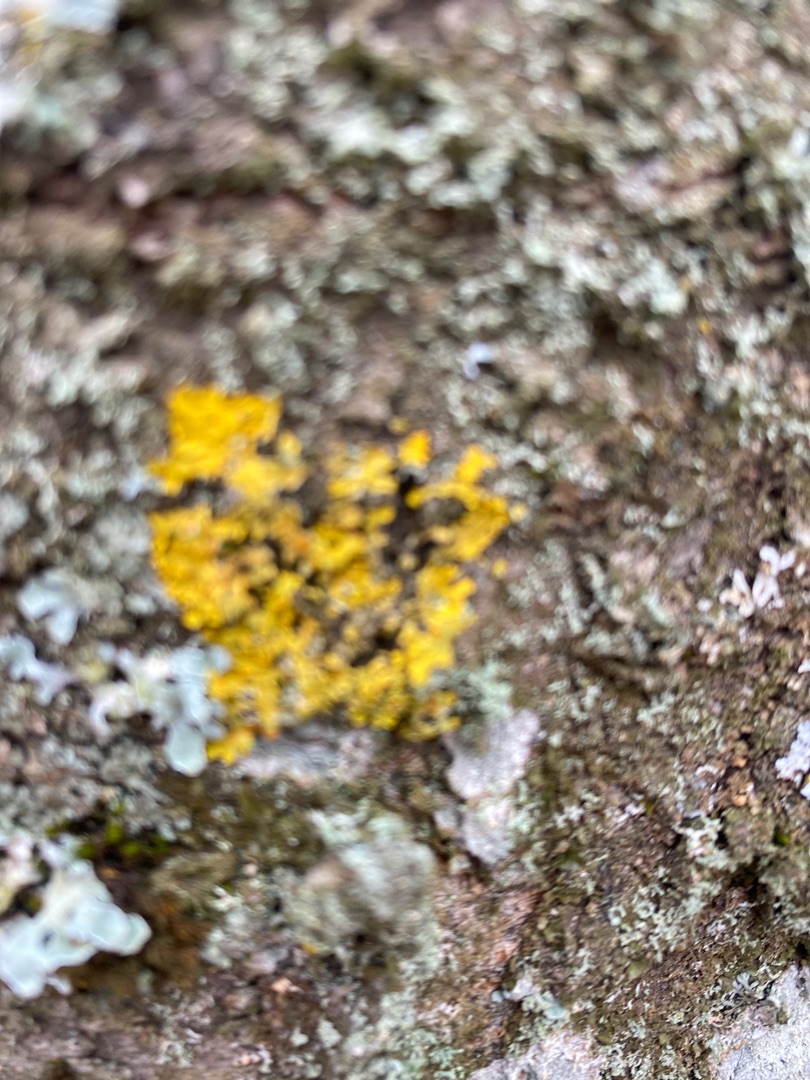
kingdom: Fungi
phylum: Ascomycota
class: Lecanoromycetes
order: Teloschistales
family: Teloschistaceae
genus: Xanthoria
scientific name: Xanthoria parietina
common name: Almindelig væggelav
